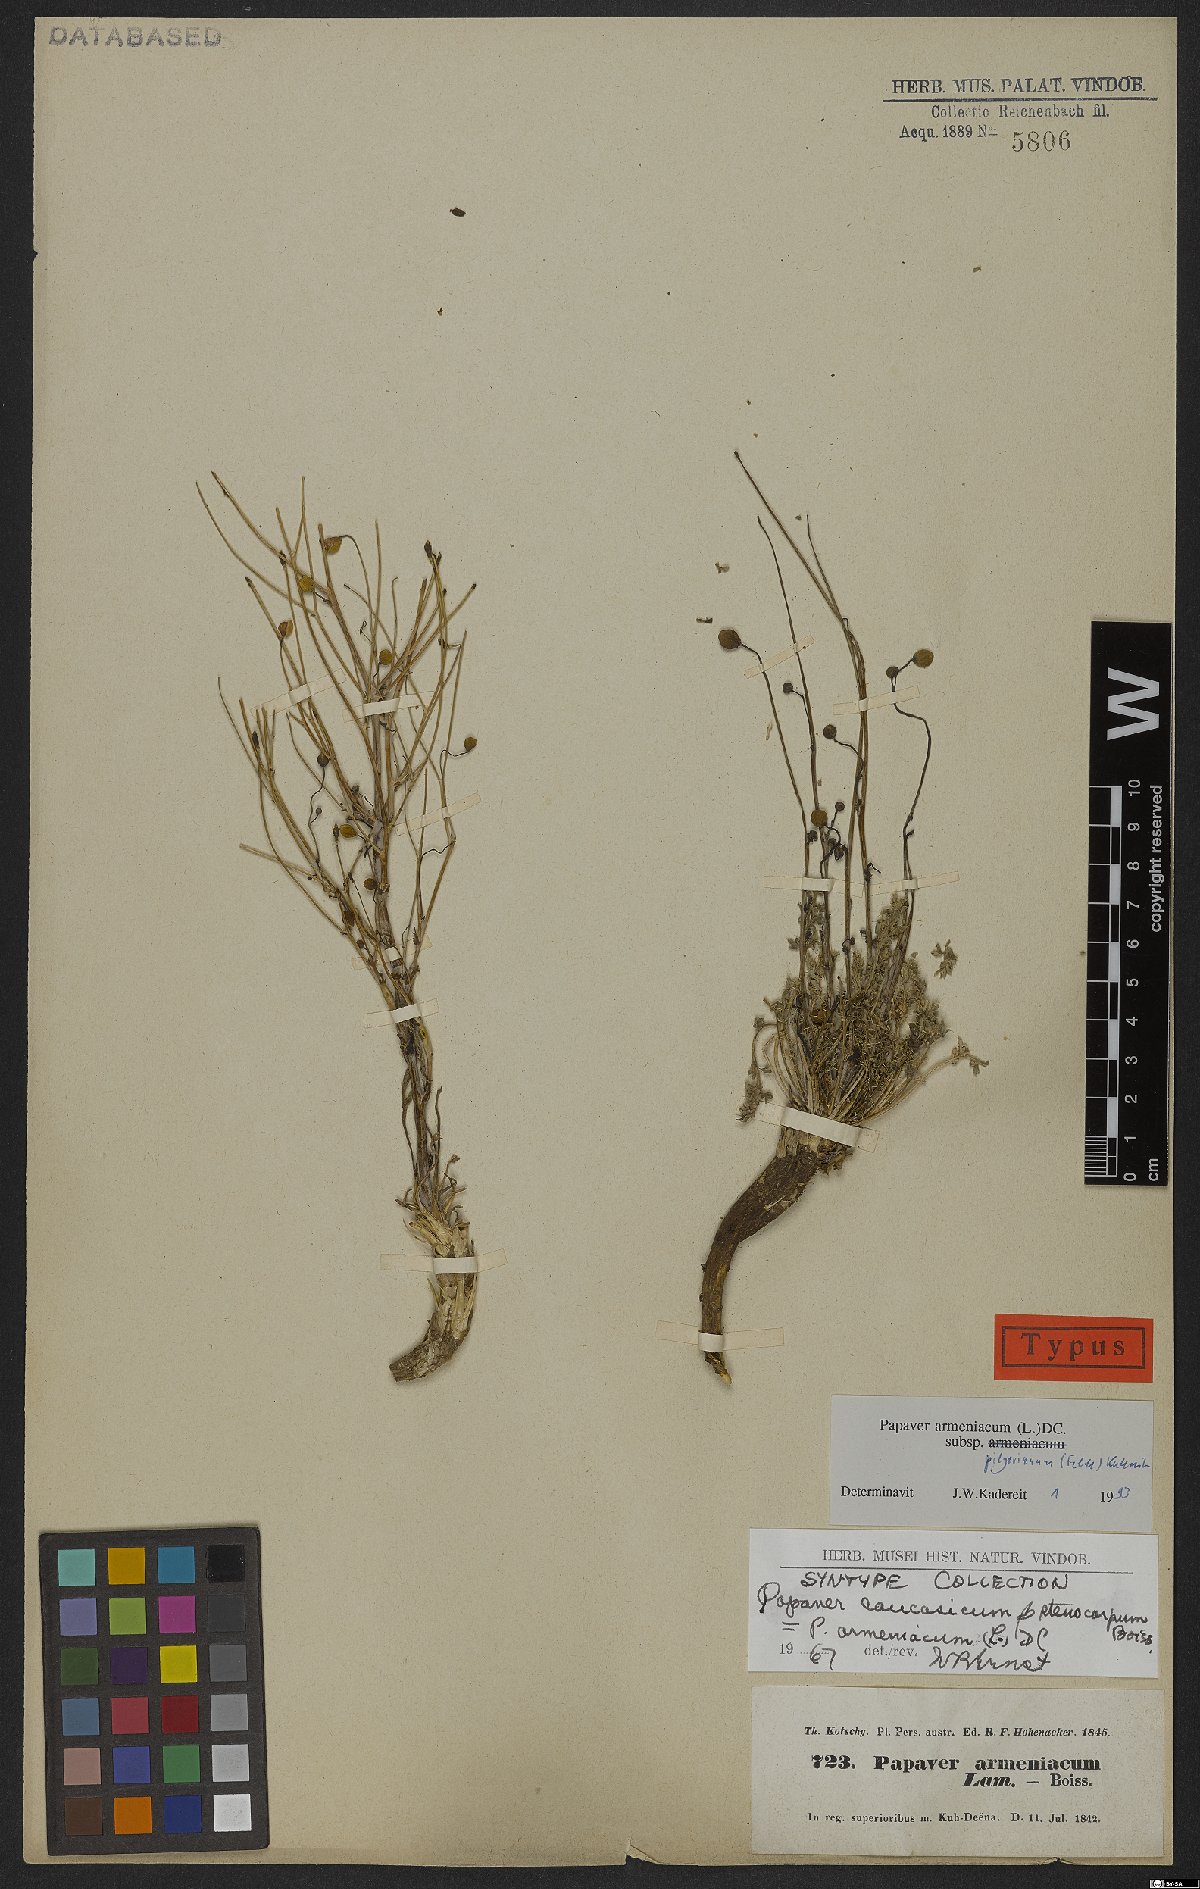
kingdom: Plantae
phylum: Tracheophyta
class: Magnoliopsida
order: Ranunculales
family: Papaveraceae
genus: Papaver
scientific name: Papaver armeniacum
